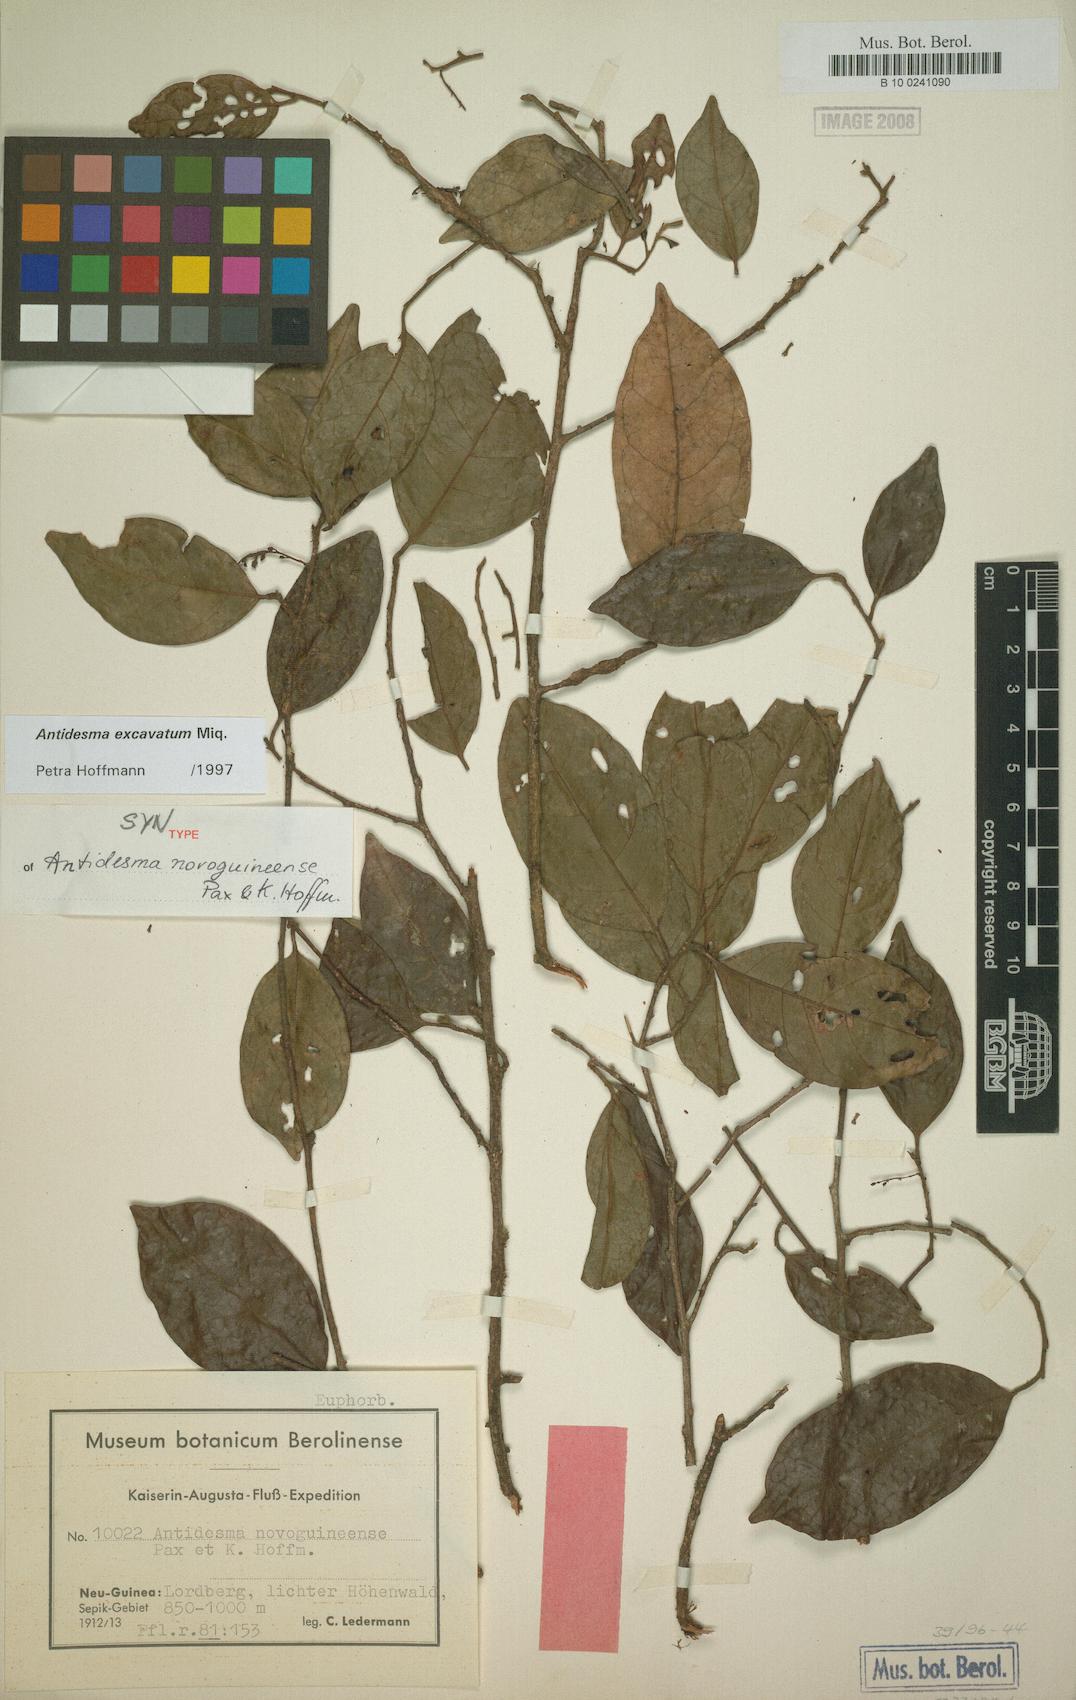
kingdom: Plantae
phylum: Tracheophyta
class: Magnoliopsida
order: Malpighiales
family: Phyllanthaceae
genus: Antidesma
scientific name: Antidesma excavatum
